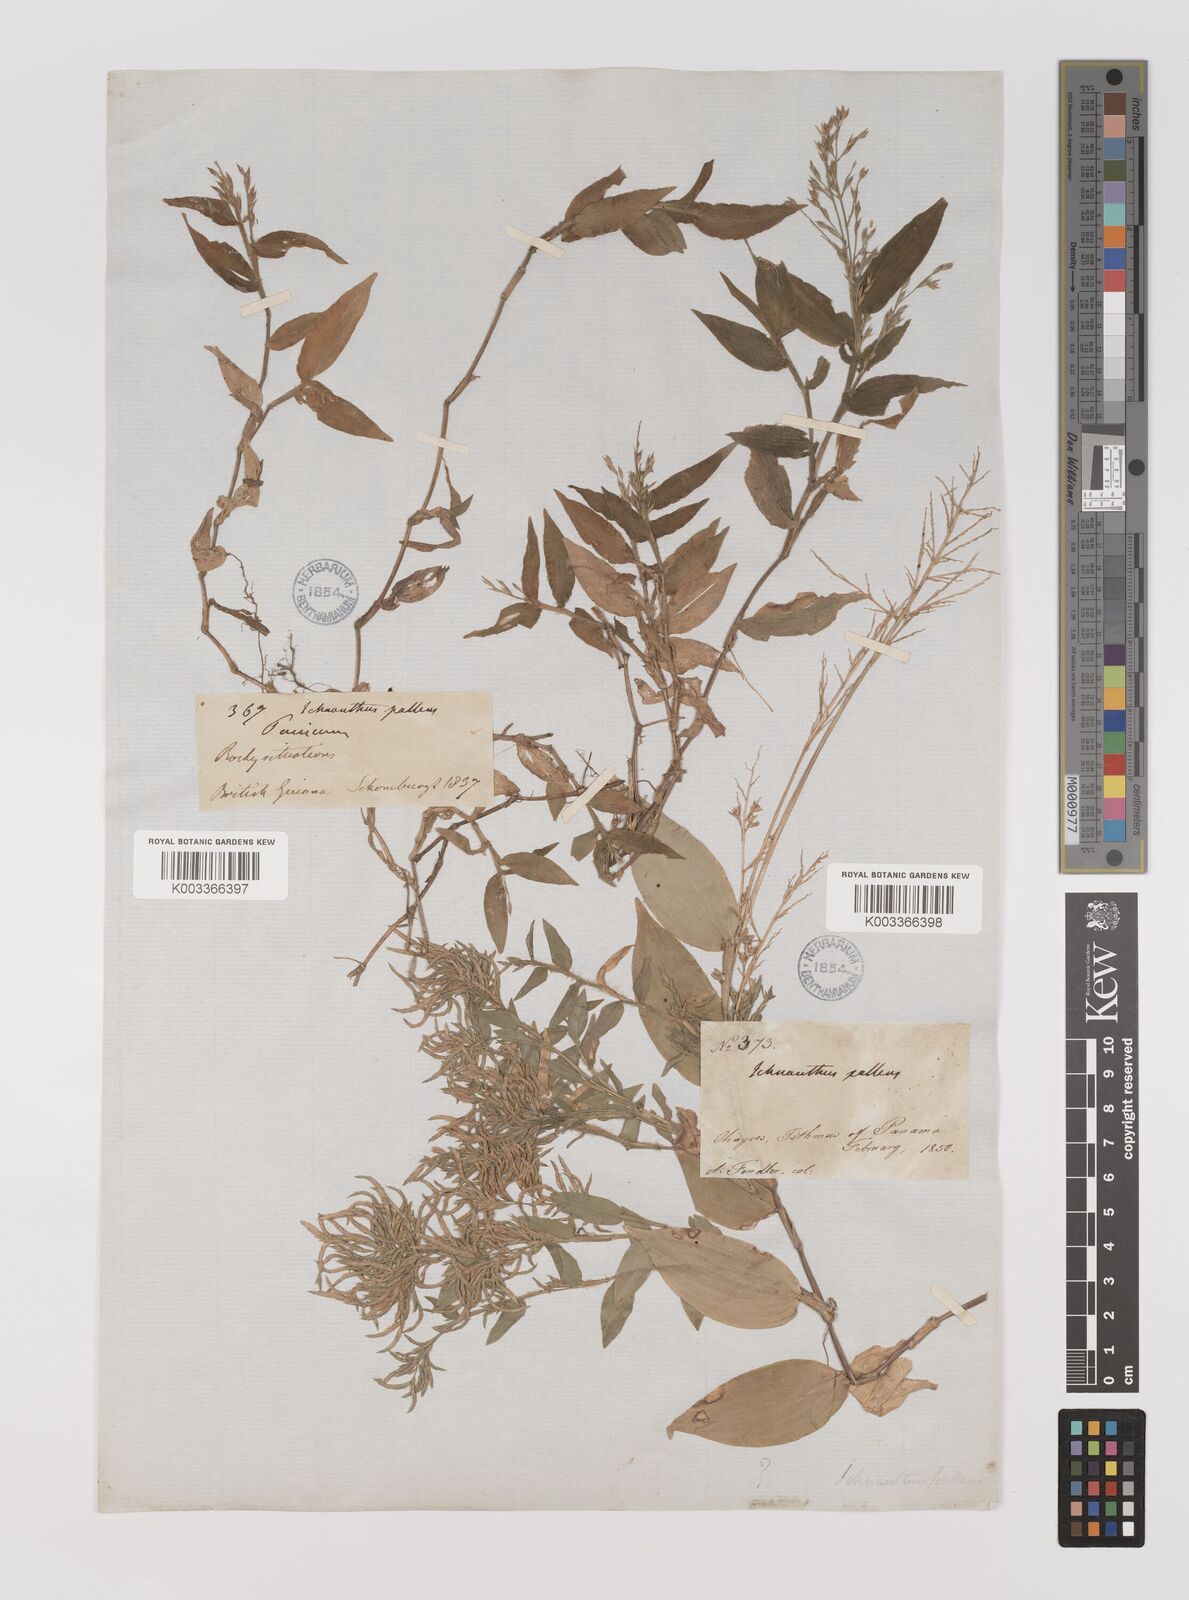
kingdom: Plantae
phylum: Tracheophyta
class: Liliopsida
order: Poales
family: Poaceae
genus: Ichnanthus
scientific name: Ichnanthus pallens
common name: Water grass
